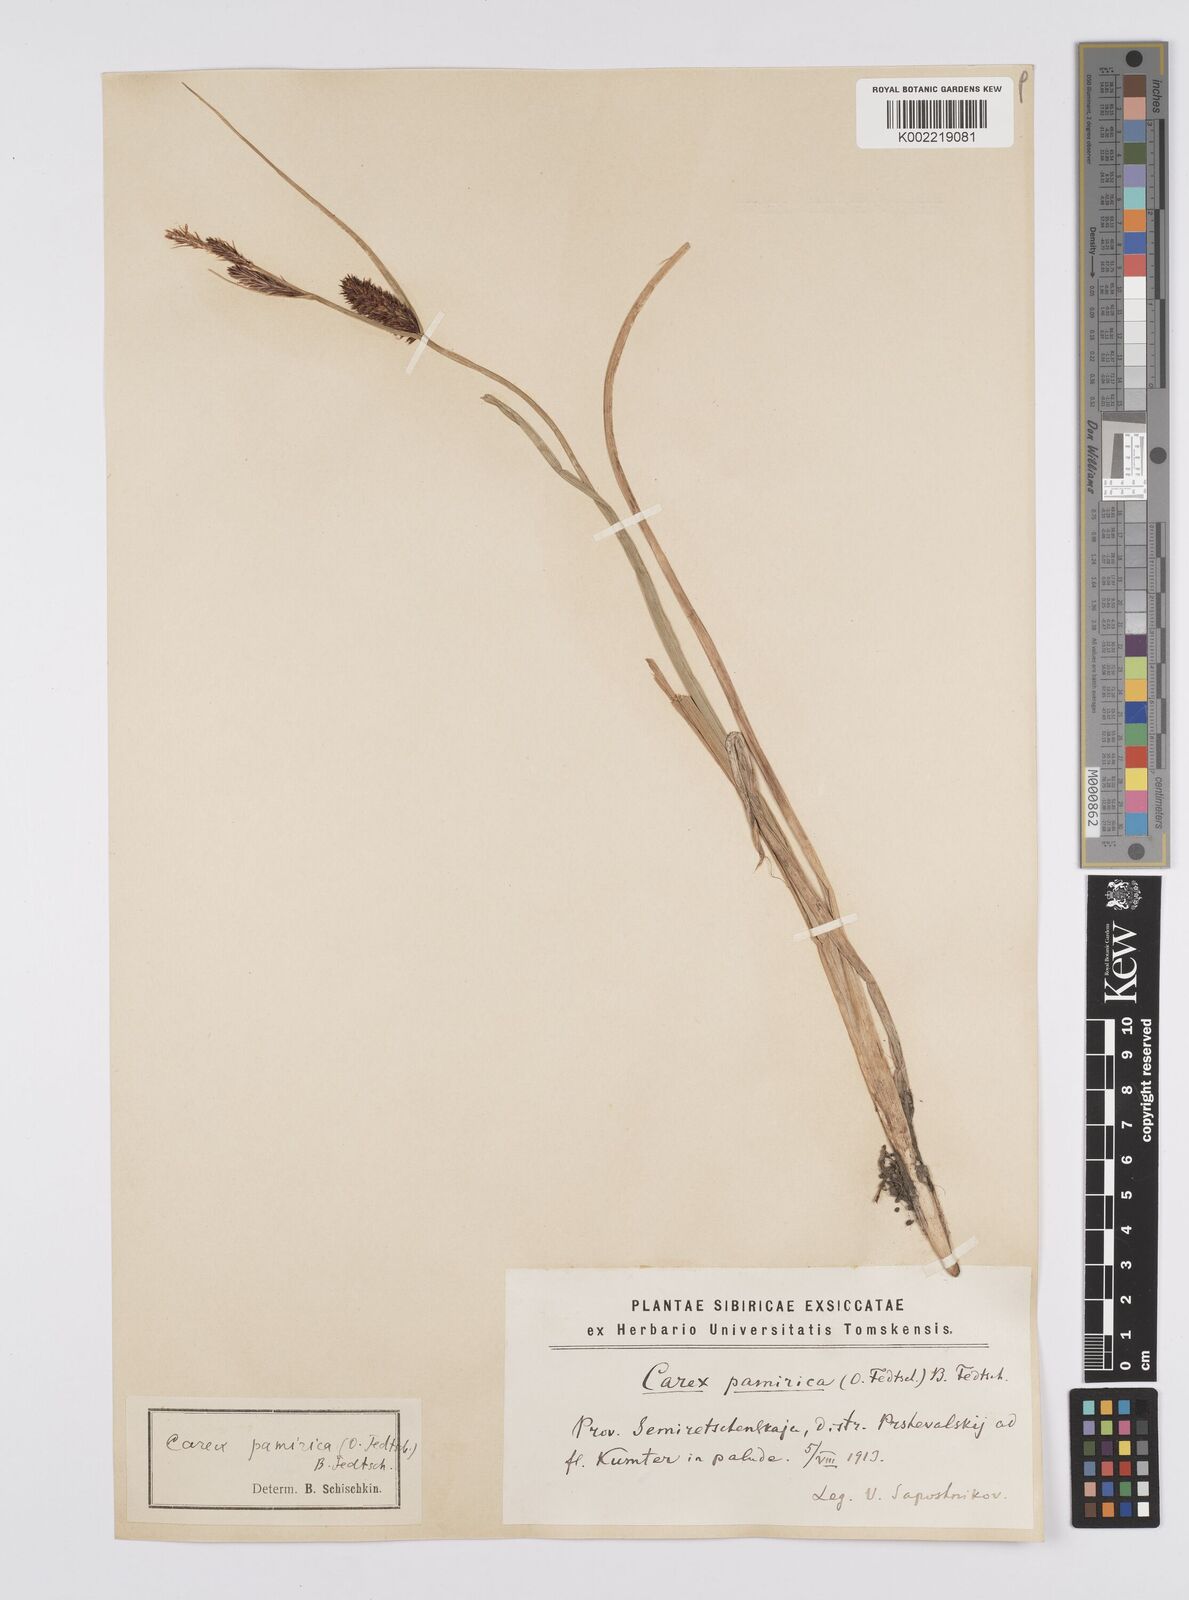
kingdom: Plantae
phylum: Tracheophyta
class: Liliopsida
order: Poales
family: Cyperaceae
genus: Carex
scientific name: Carex pamirensis
